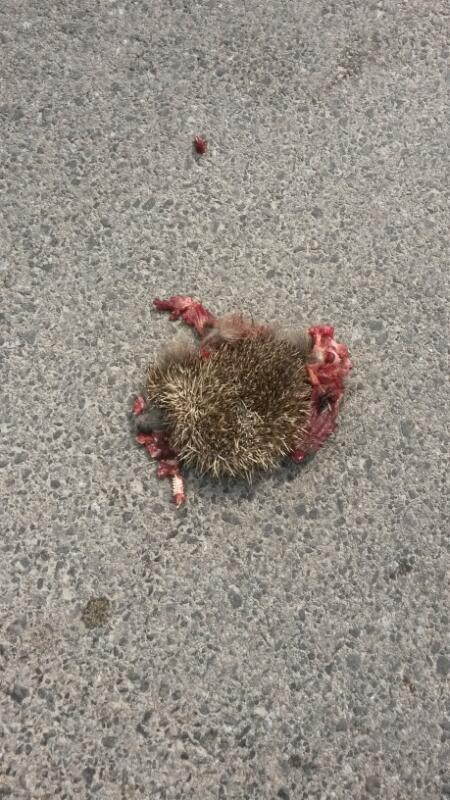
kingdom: Animalia
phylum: Chordata
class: Mammalia
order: Erinaceomorpha
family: Erinaceidae
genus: Erinaceus
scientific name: Erinaceus
